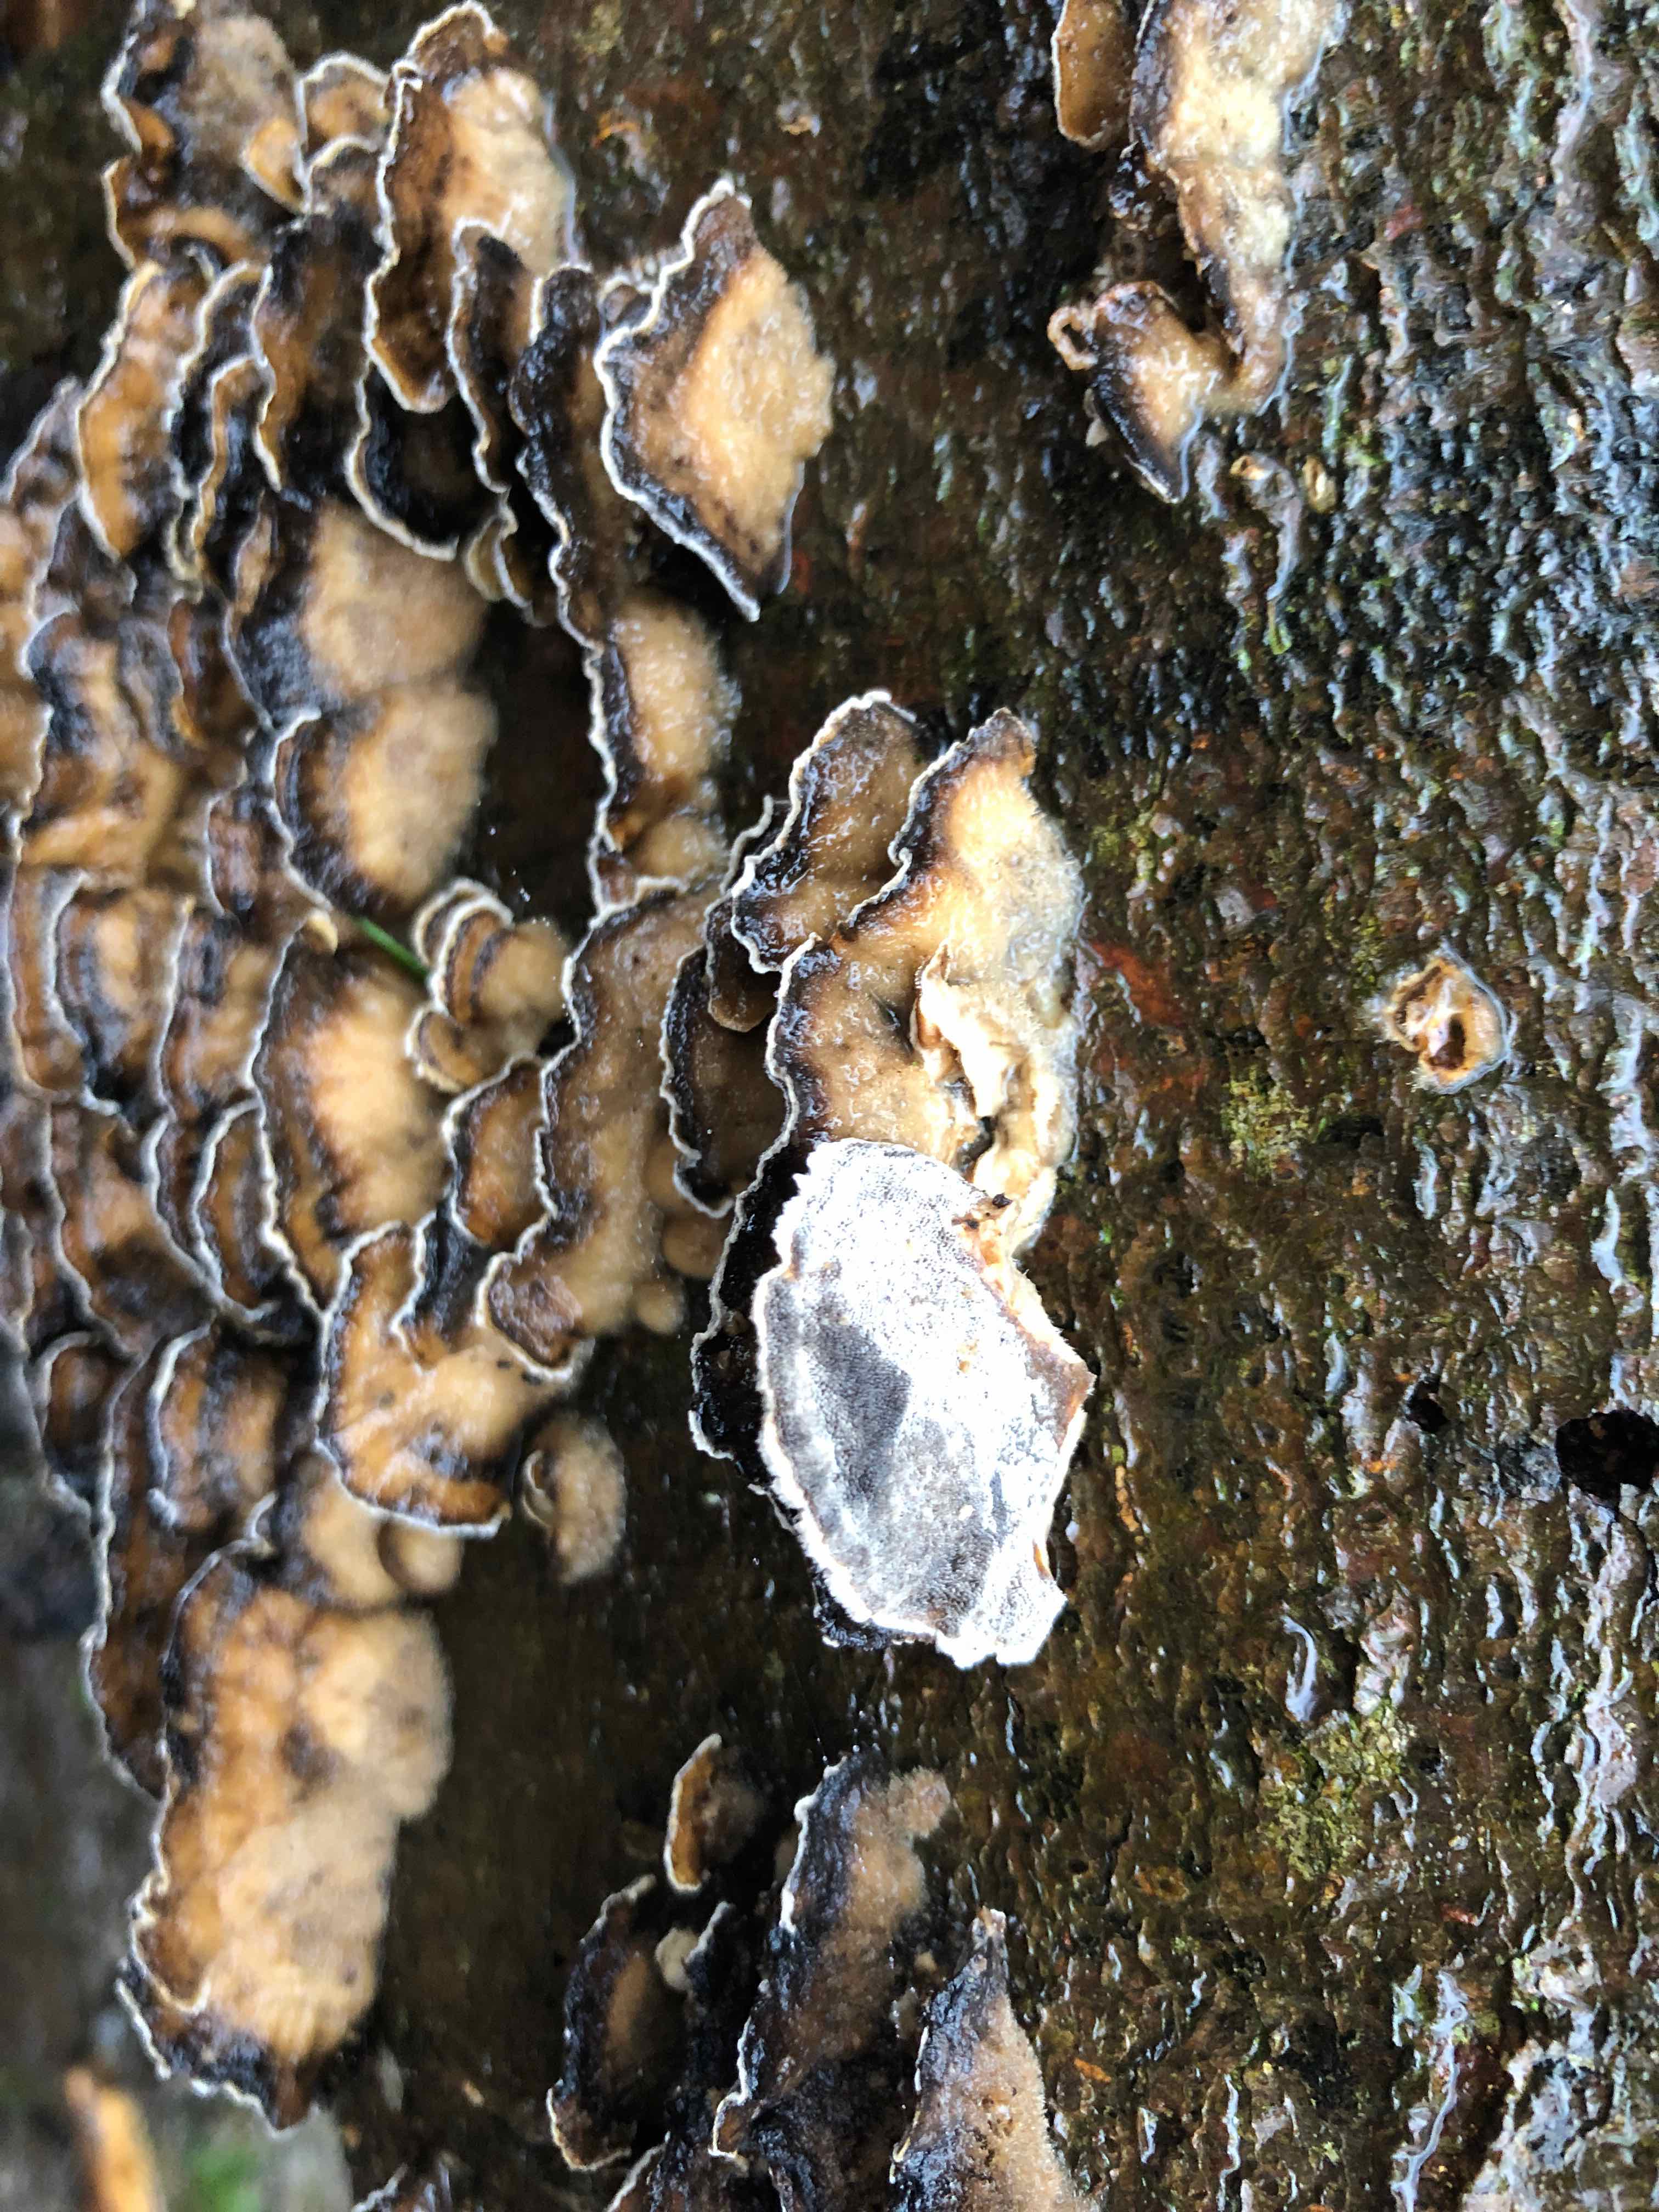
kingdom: Fungi
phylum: Basidiomycota
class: Agaricomycetes
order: Polyporales
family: Phanerochaetaceae
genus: Bjerkandera
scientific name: Bjerkandera adusta
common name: sveden sodporesvamp
